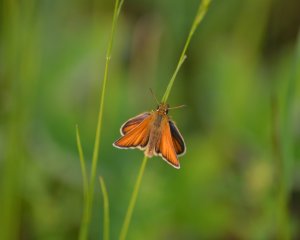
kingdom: Animalia
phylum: Arthropoda
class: Insecta
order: Lepidoptera
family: Hesperiidae
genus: Thymelicus
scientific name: Thymelicus lineola
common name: European Skipper
